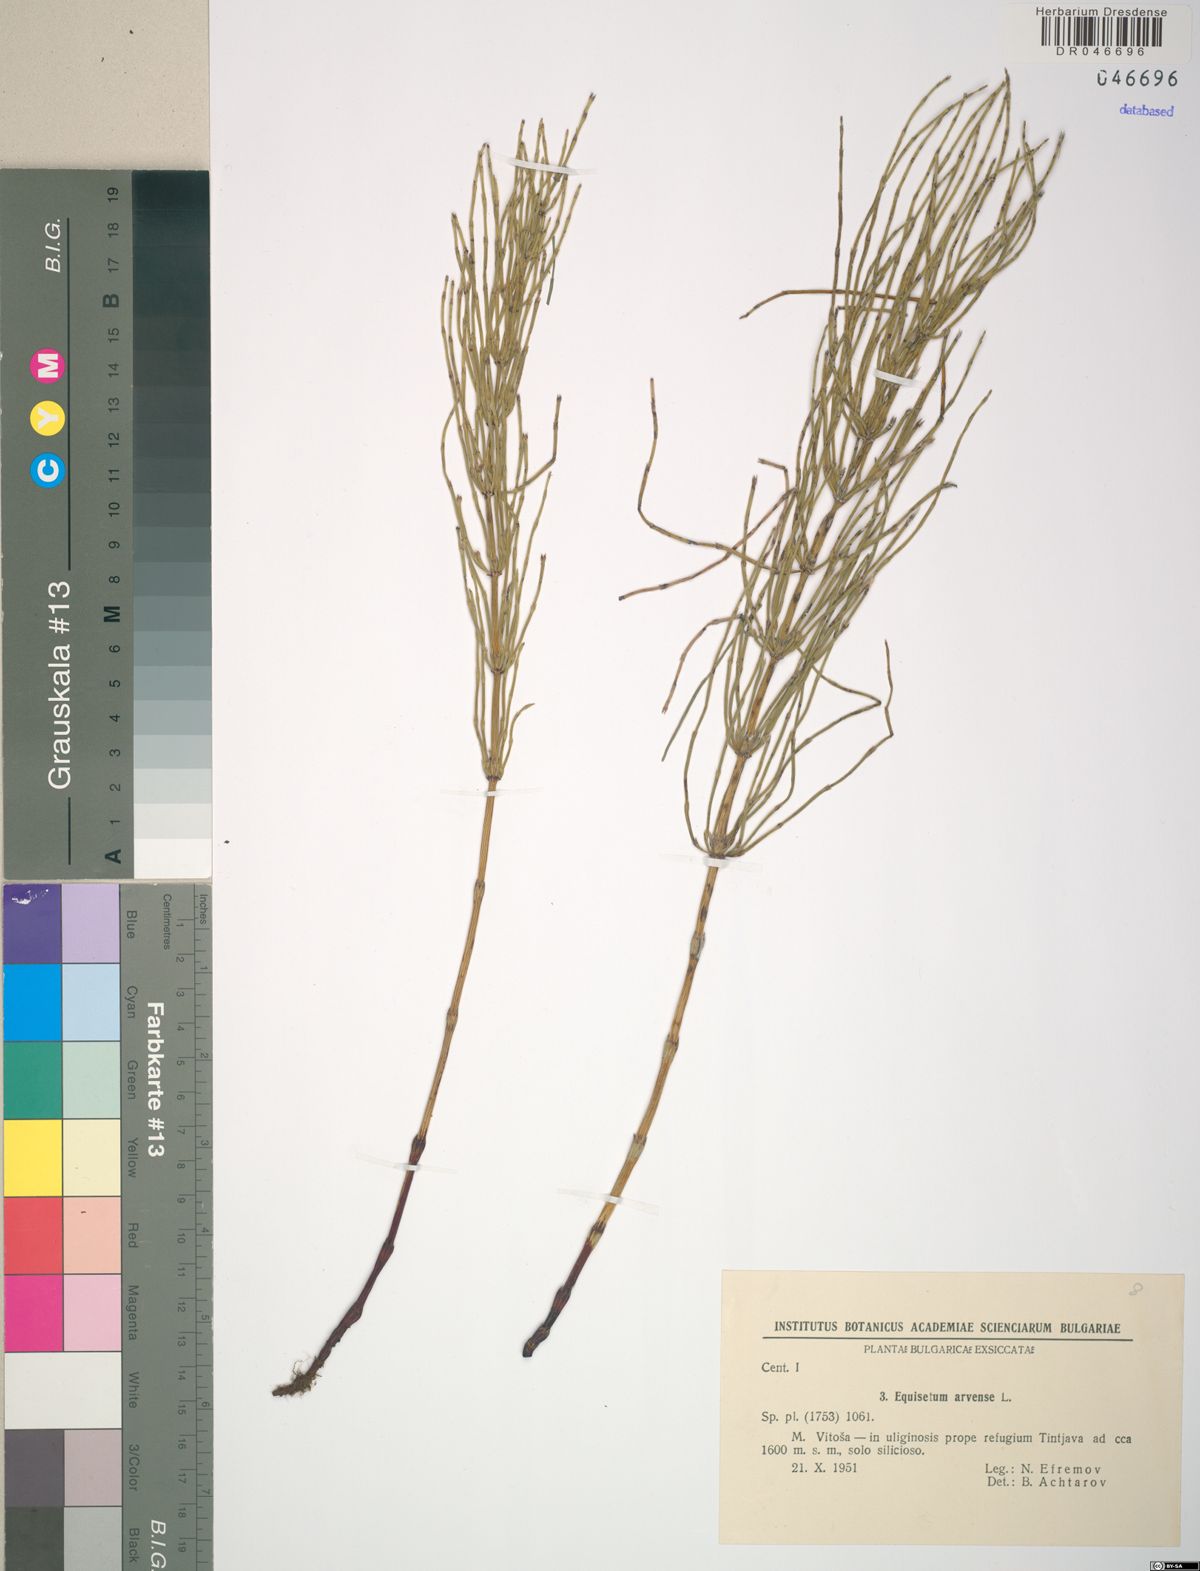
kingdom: Plantae
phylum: Tracheophyta
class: Polypodiopsida
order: Equisetales
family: Equisetaceae
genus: Equisetum
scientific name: Equisetum arvense
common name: Field horsetail
